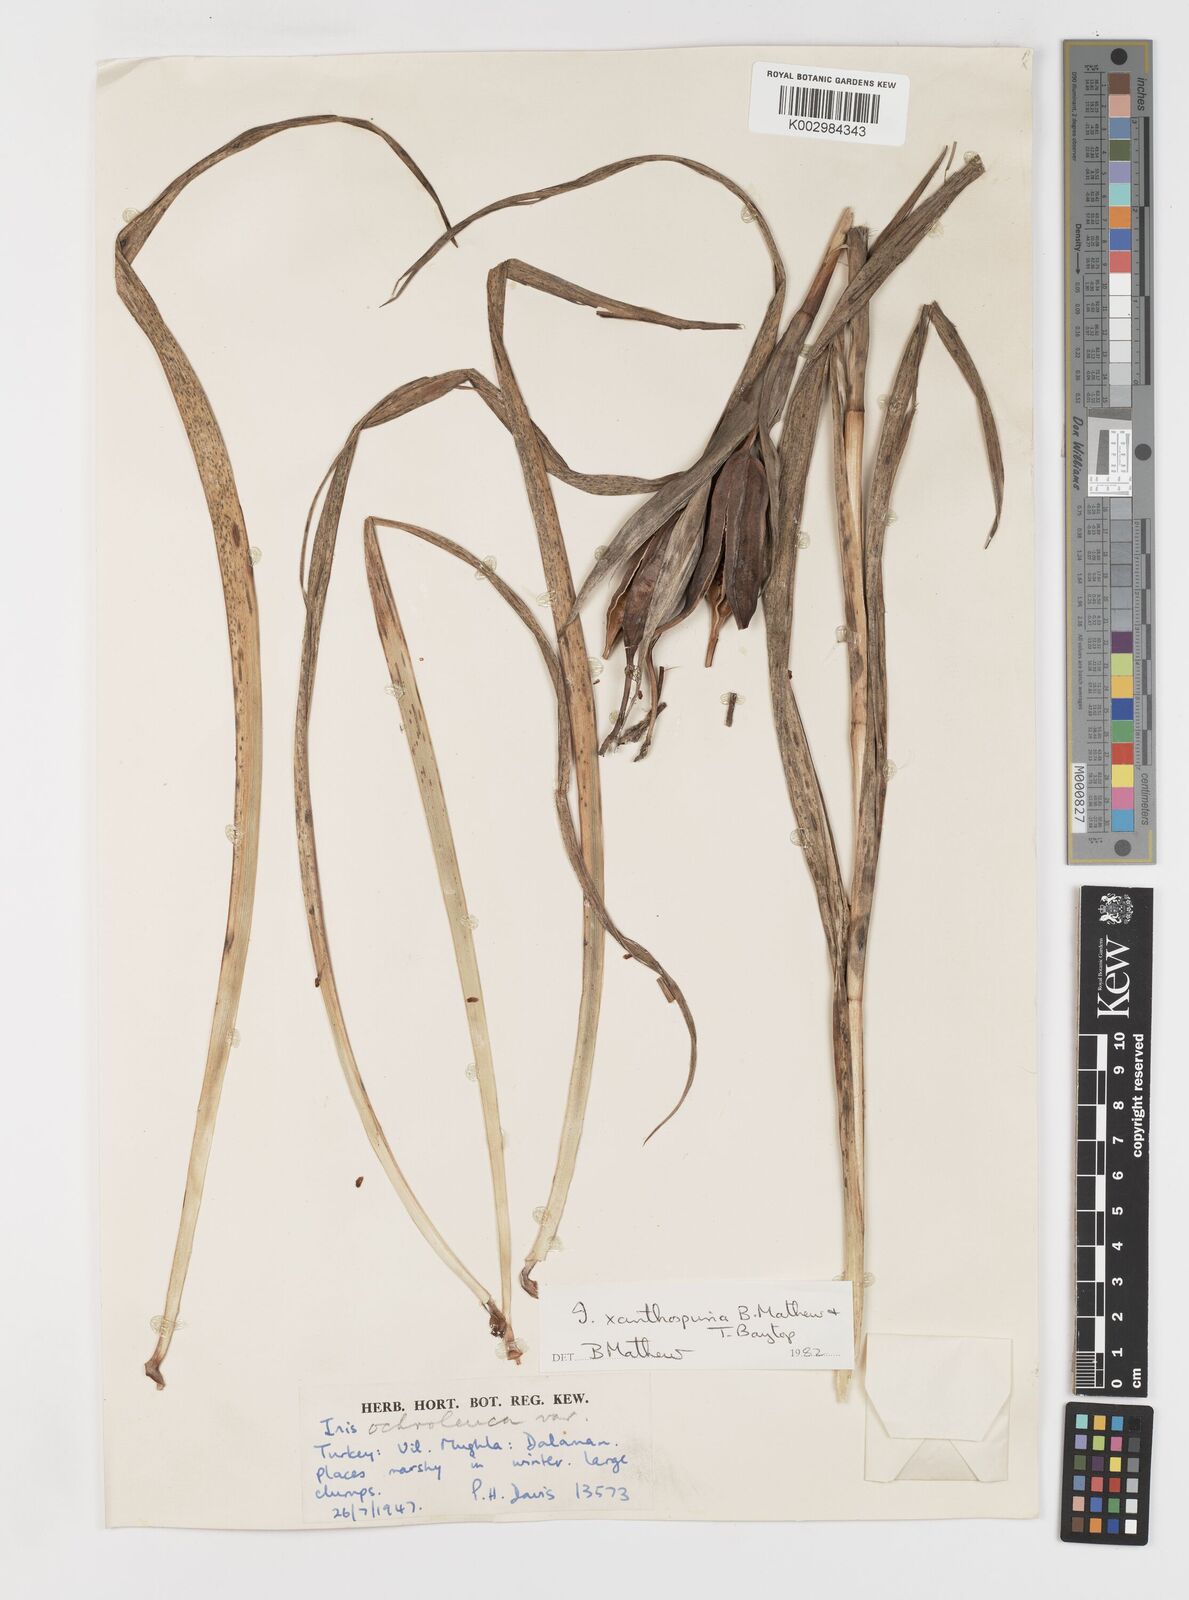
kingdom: Plantae
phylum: Tracheophyta
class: Liliopsida
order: Asparagales
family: Iridaceae
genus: Iris
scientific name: Iris spuria
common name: Blue iris
